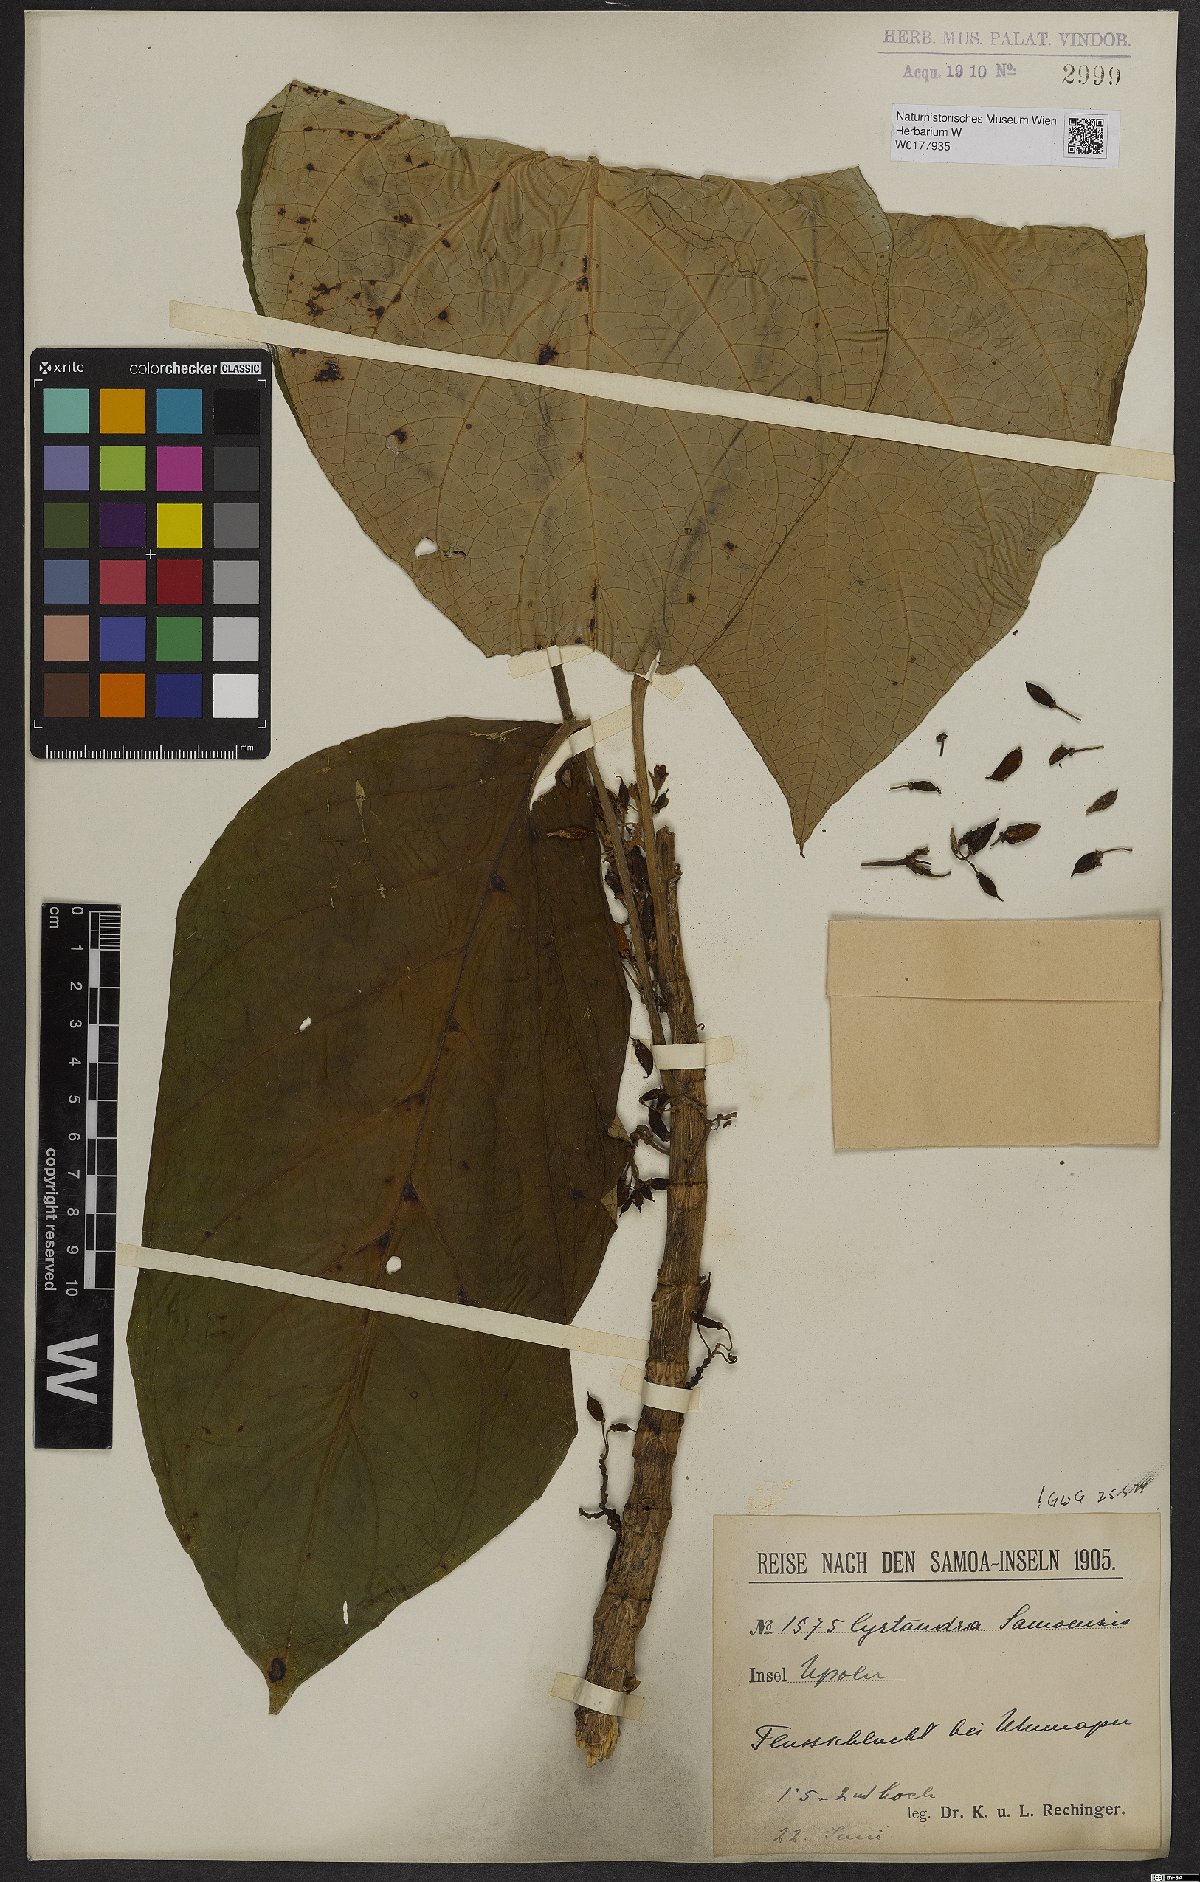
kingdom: Plantae
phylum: Tracheophyta
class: Magnoliopsida
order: Lamiales
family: Gesneriaceae
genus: Cyrtandra
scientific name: Cyrtandra samoensis
